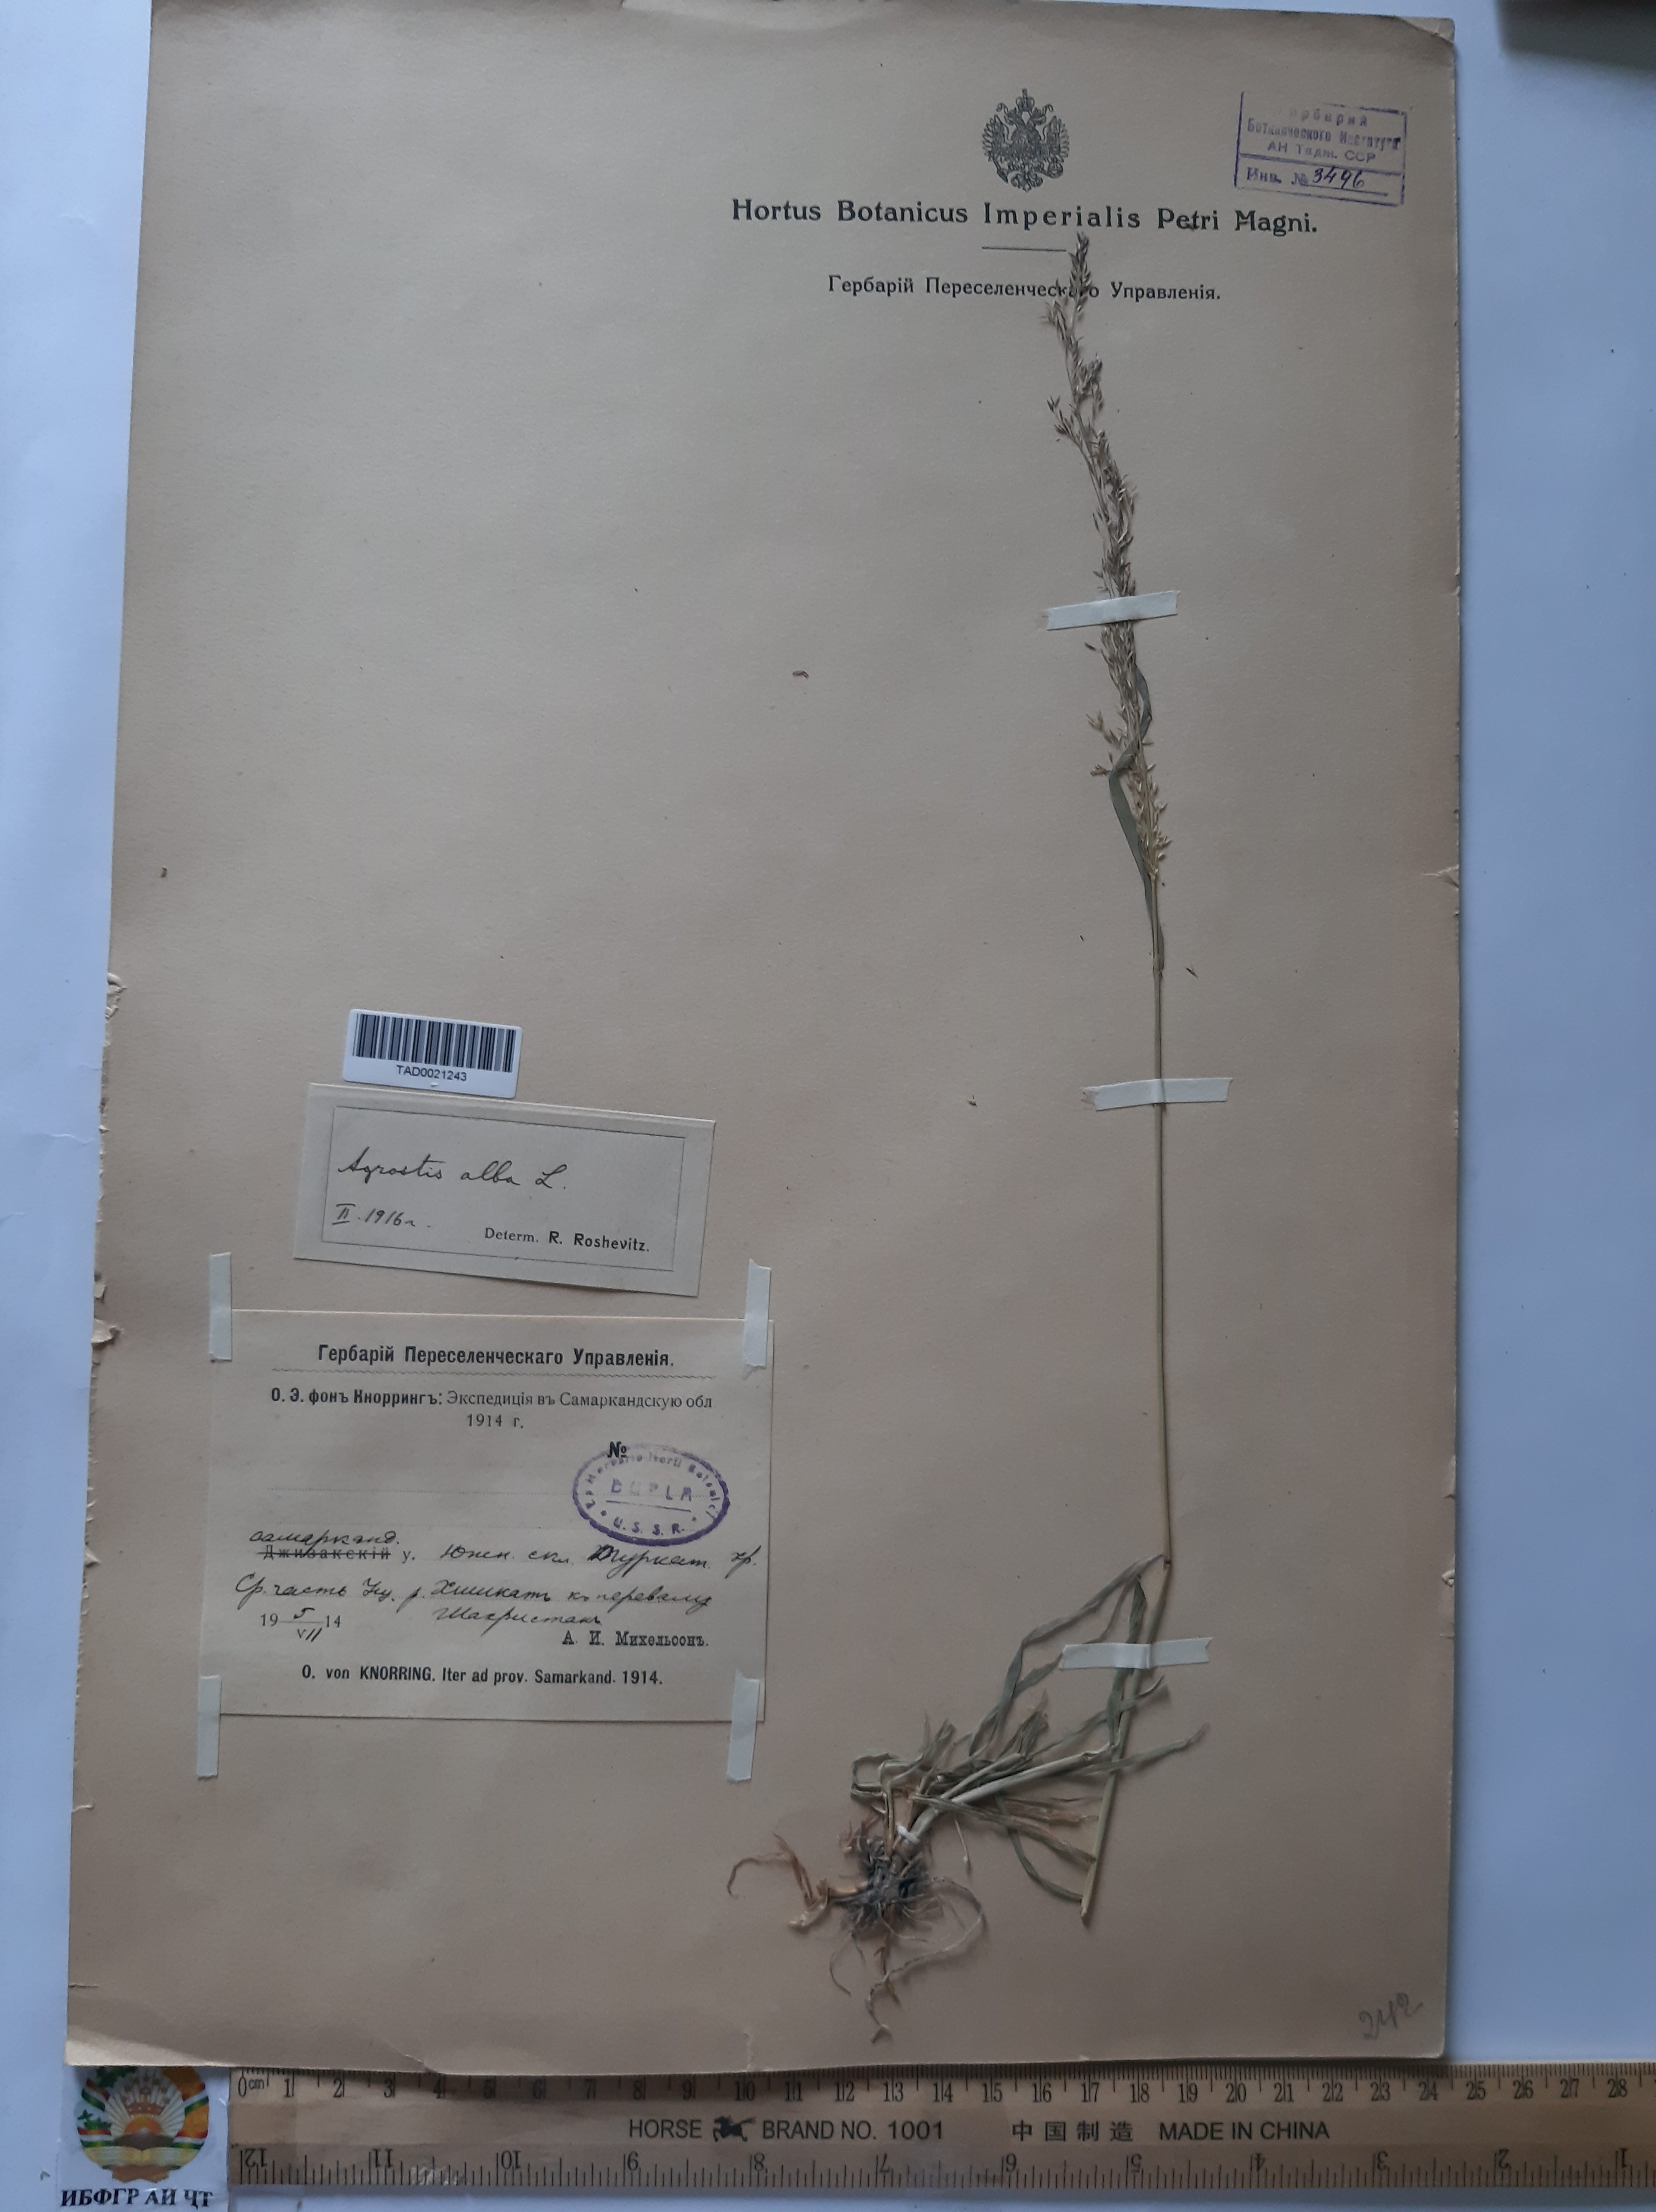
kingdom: Plantae
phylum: Tracheophyta
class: Liliopsida
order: Poales
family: Poaceae
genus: Poa
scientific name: Poa nemoralis
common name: Wood bluegrass
